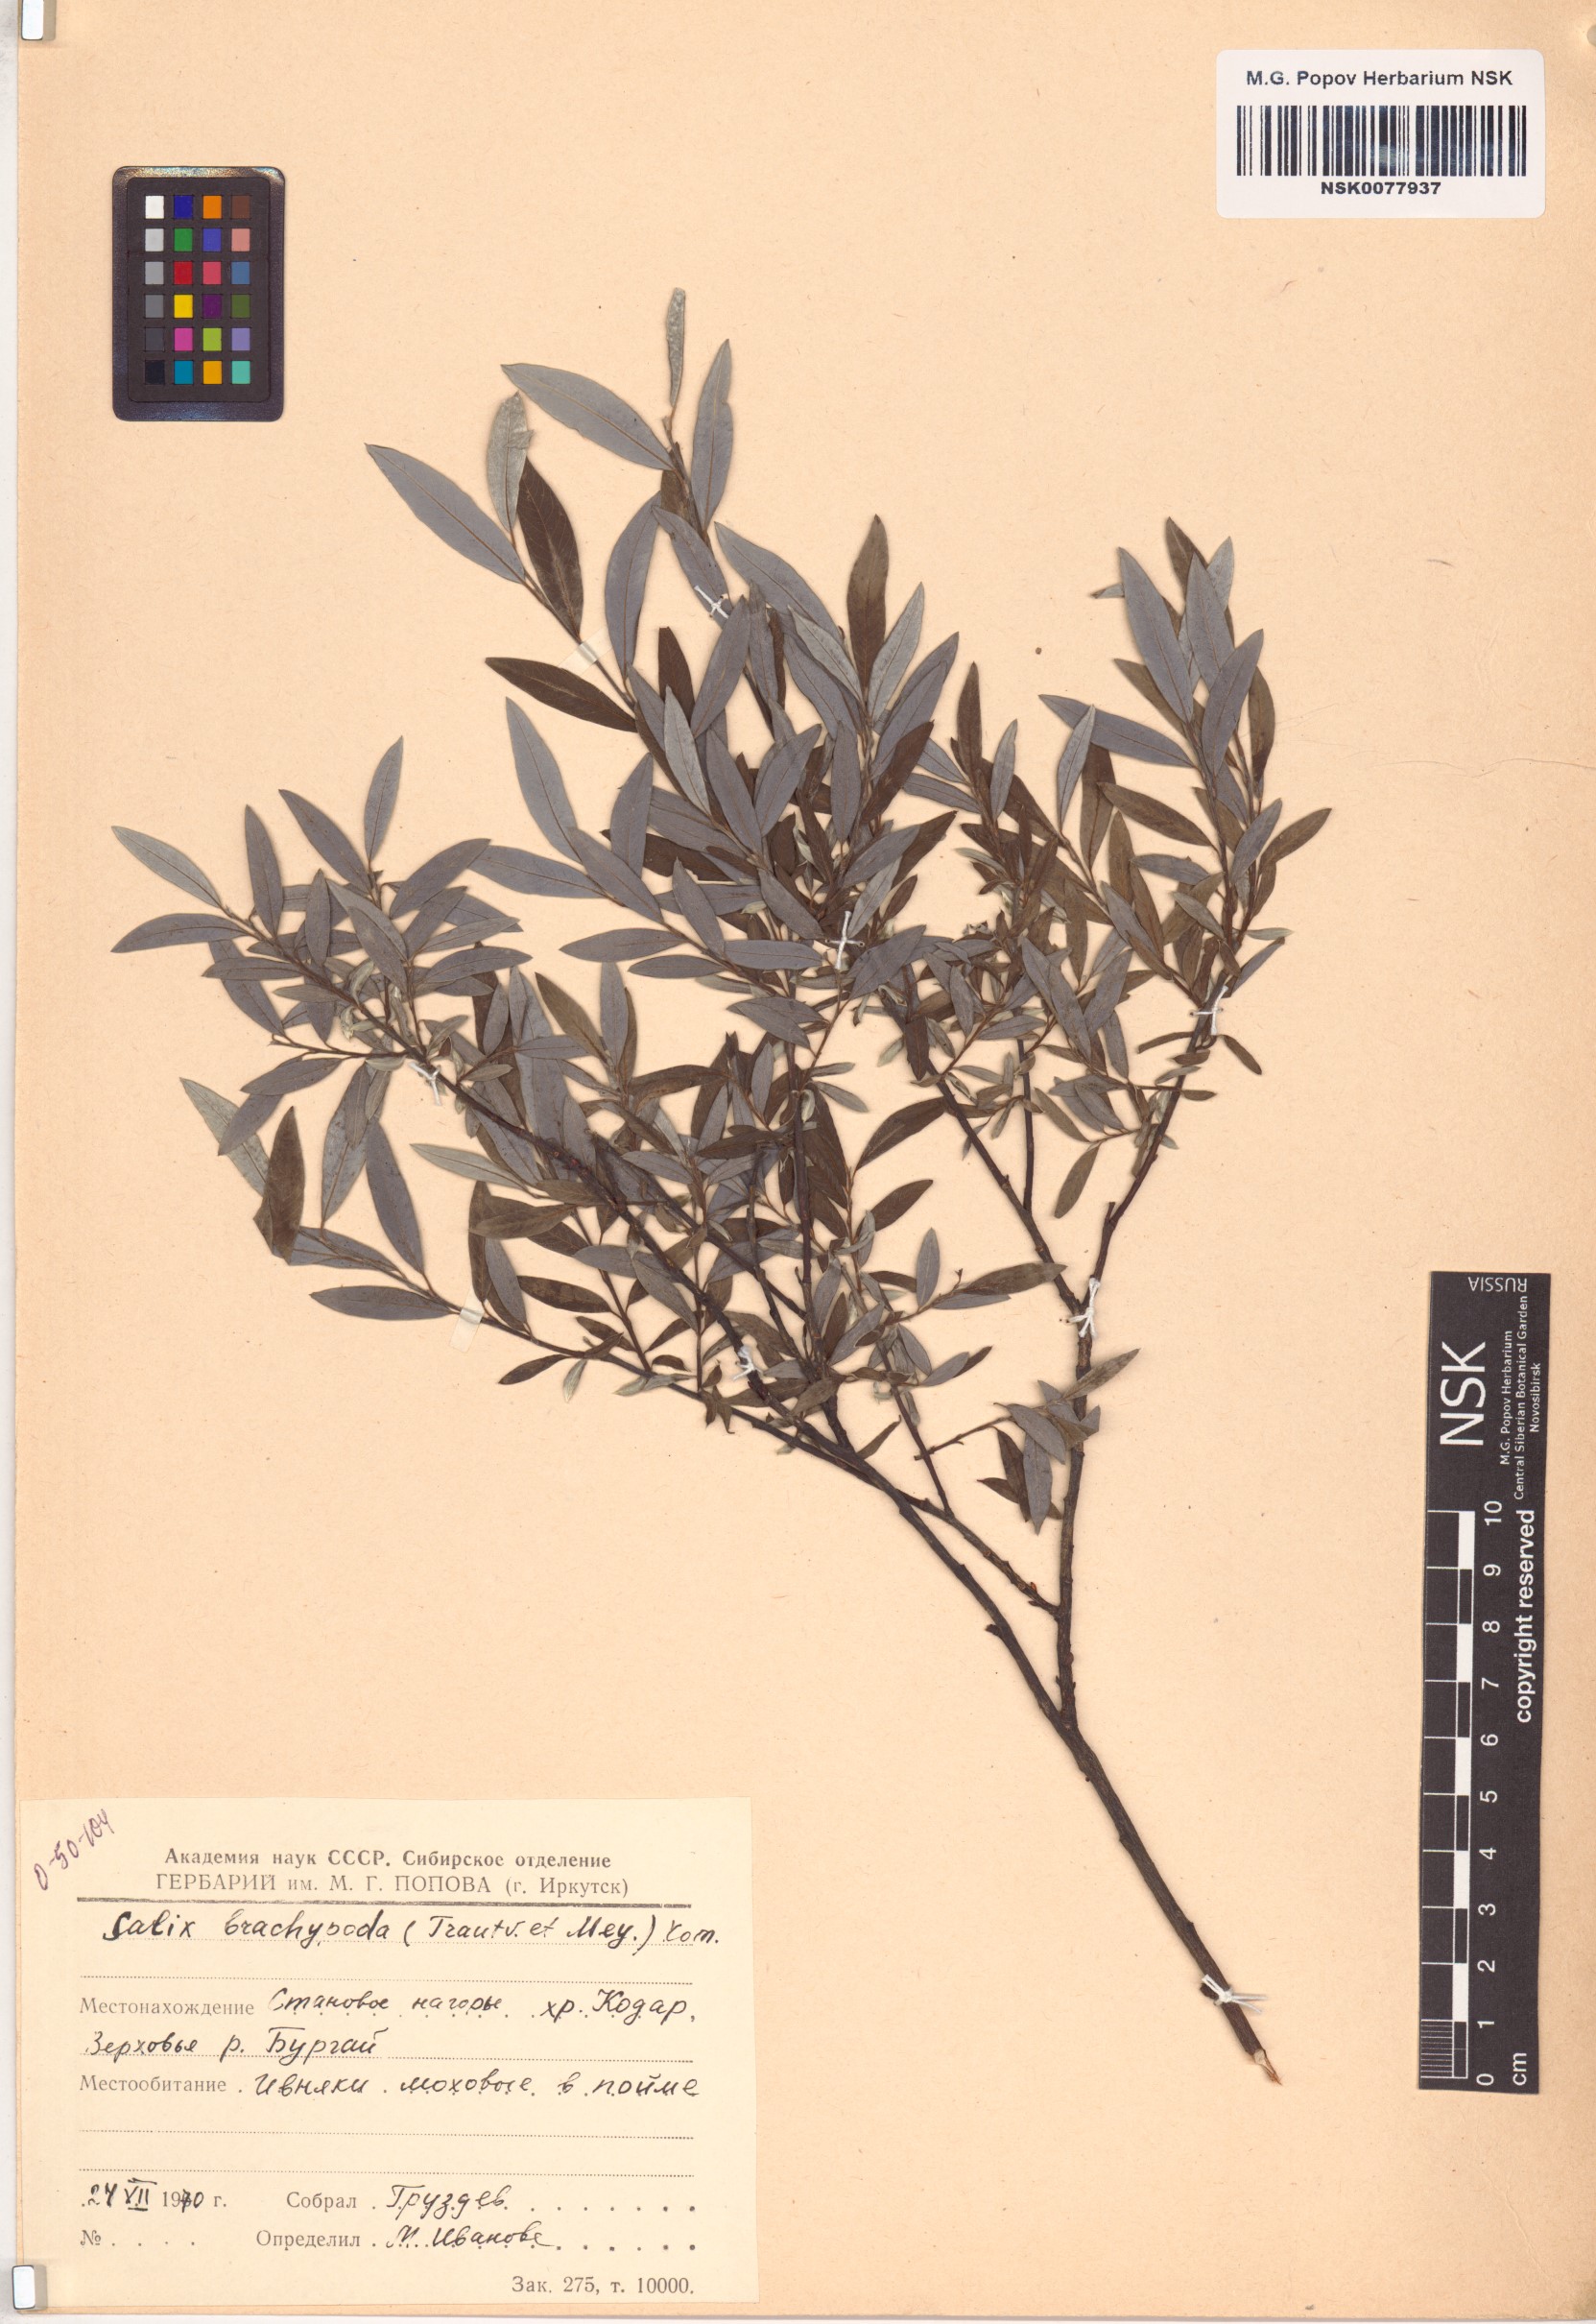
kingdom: Plantae
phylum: Tracheophyta
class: Magnoliopsida
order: Malpighiales
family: Salicaceae
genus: Salix
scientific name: Salix brachypoda
